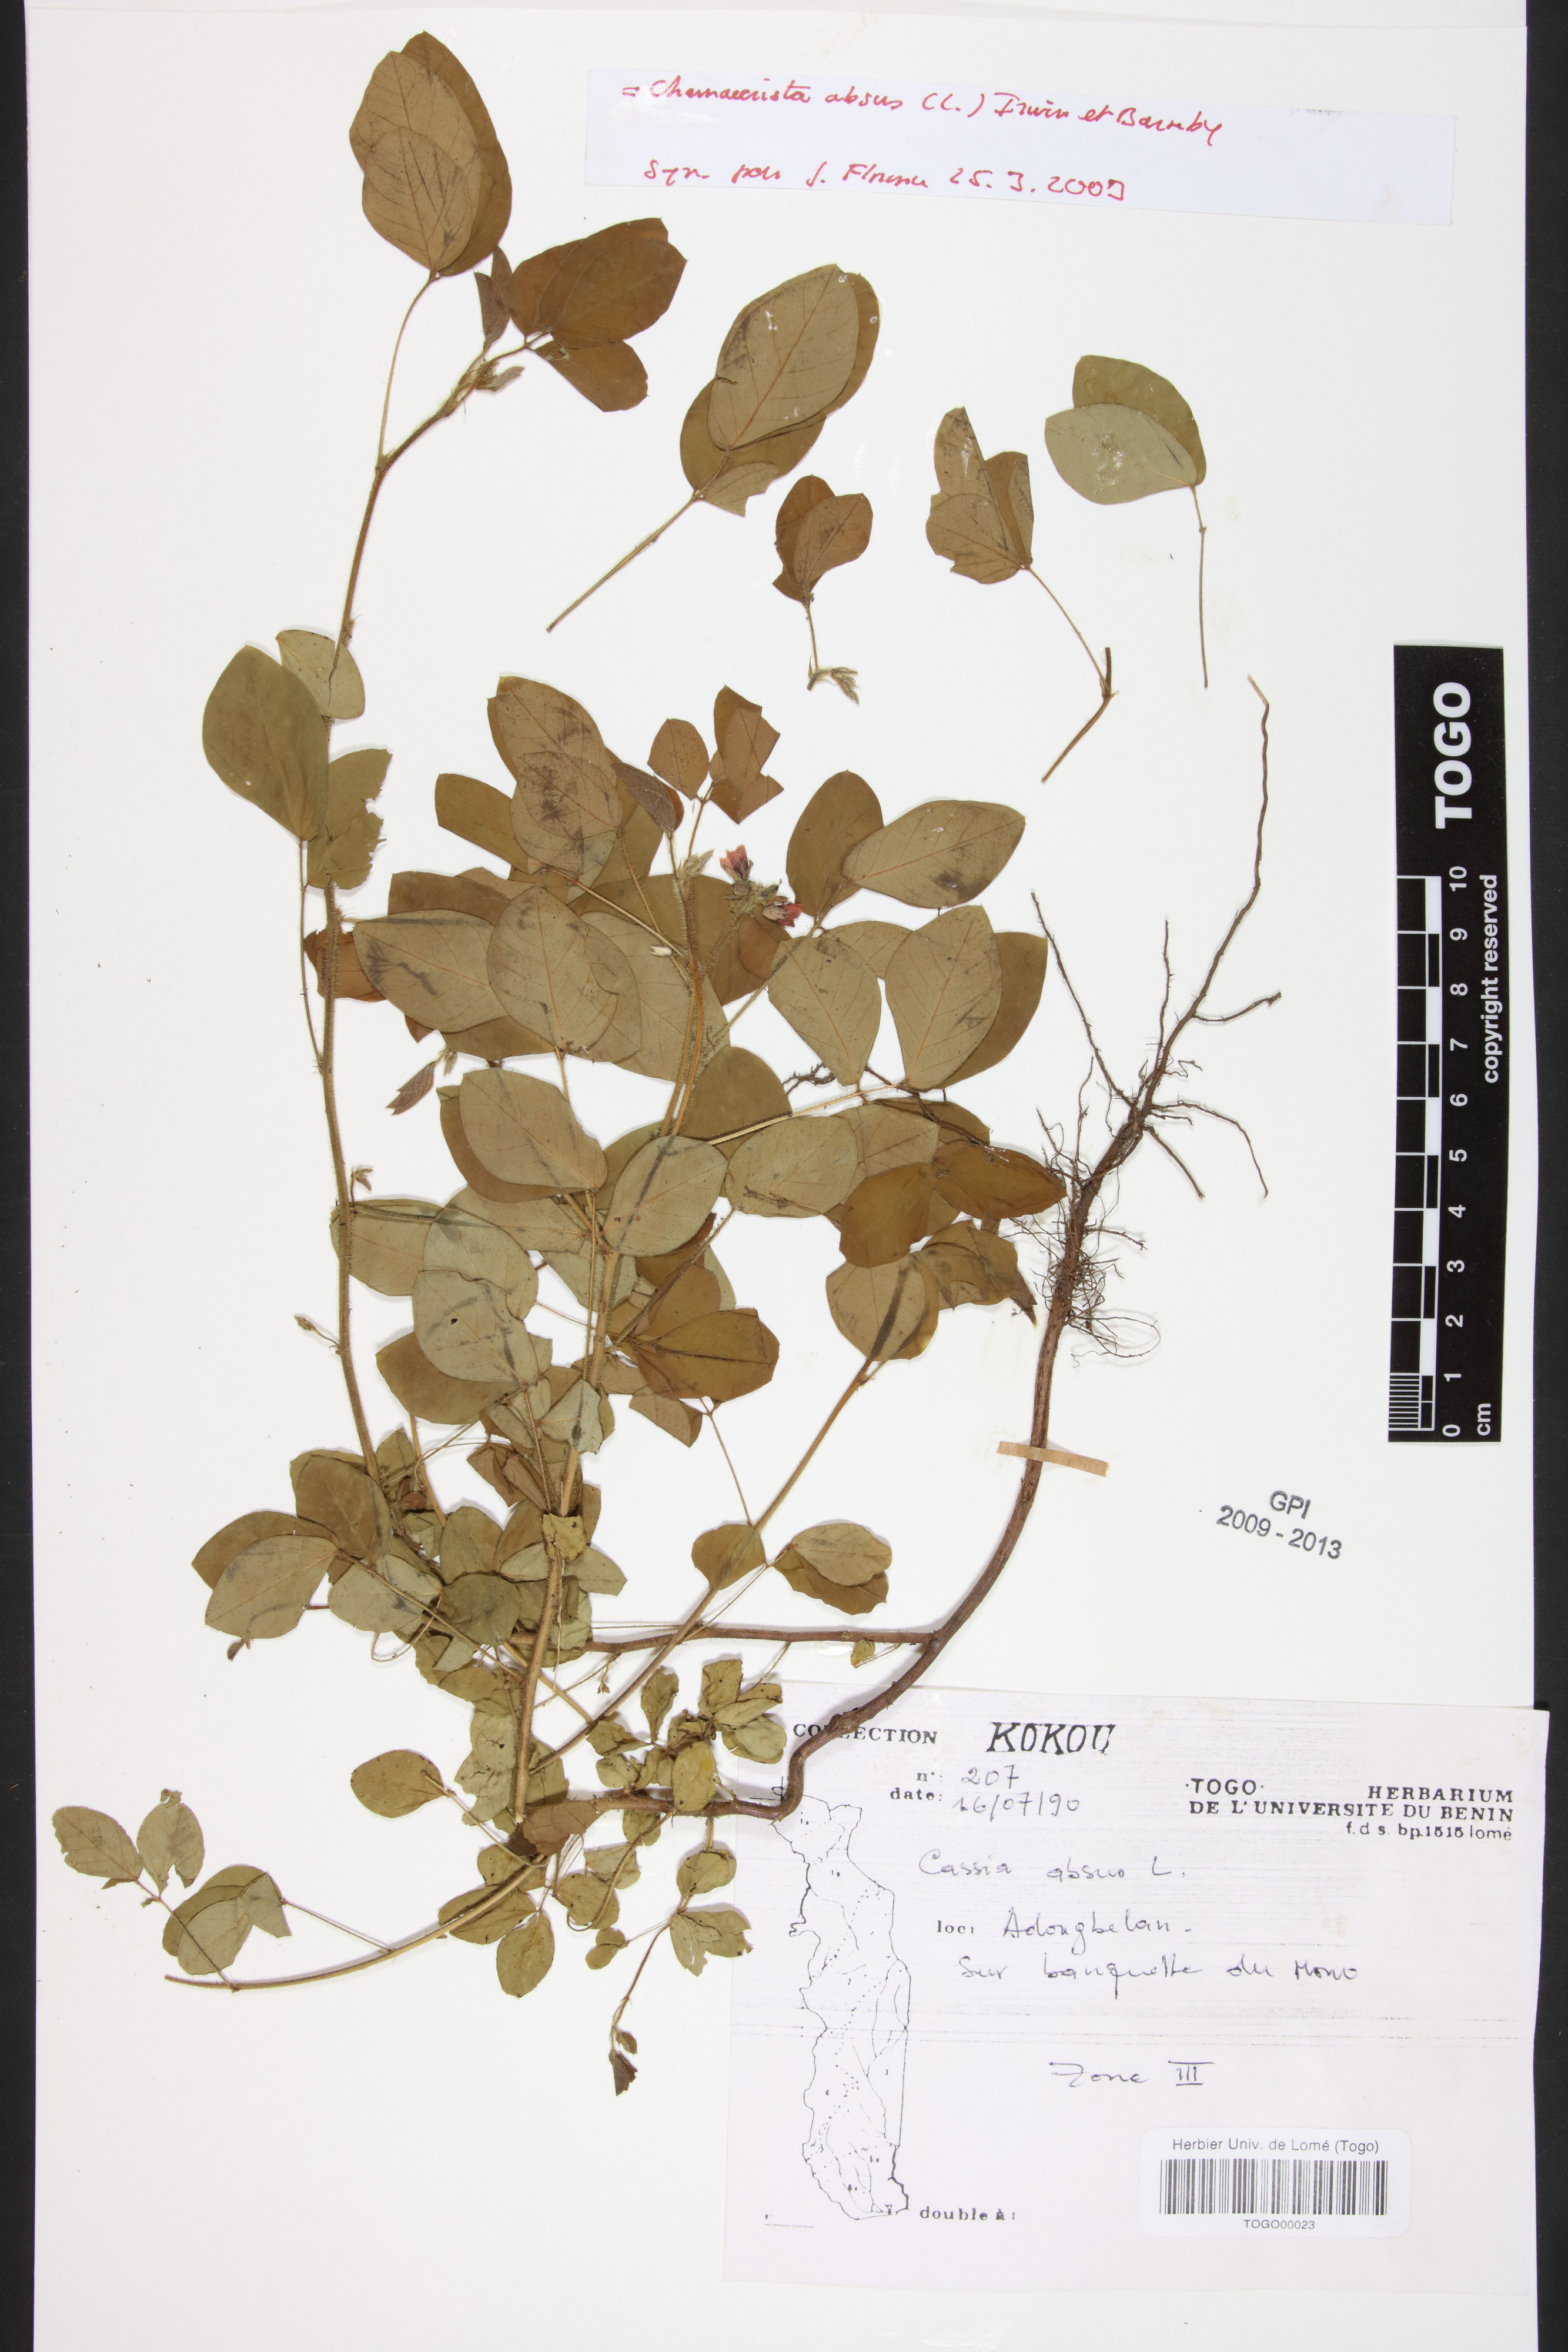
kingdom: Plantae
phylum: Tracheophyta
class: Magnoliopsida
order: Fabales
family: Fabaceae
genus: Chamaecrista
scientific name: Chamaecrista absus
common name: Tropical sensitive pea
